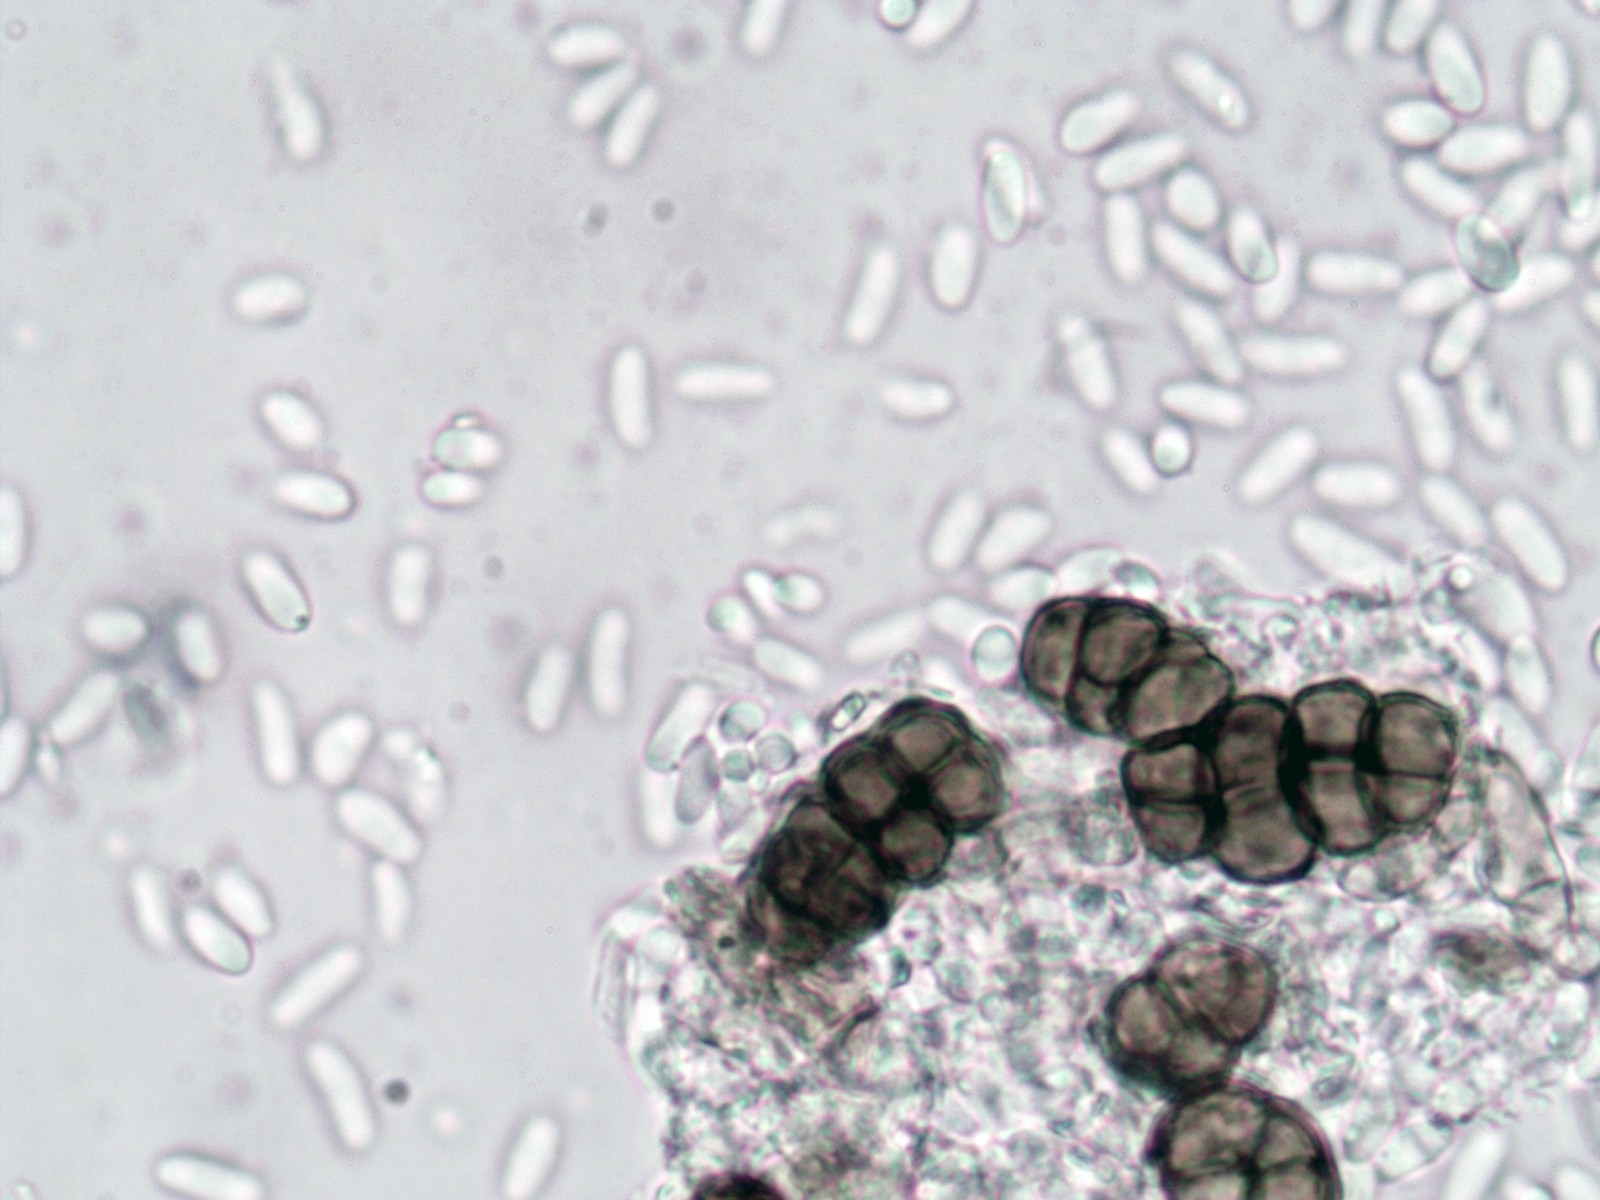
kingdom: Fungi
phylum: Ascomycota
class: Dothideomycetes
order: Pleosporales
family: Diademaceae
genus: Comoclathris
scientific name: Comoclathris typhicola
